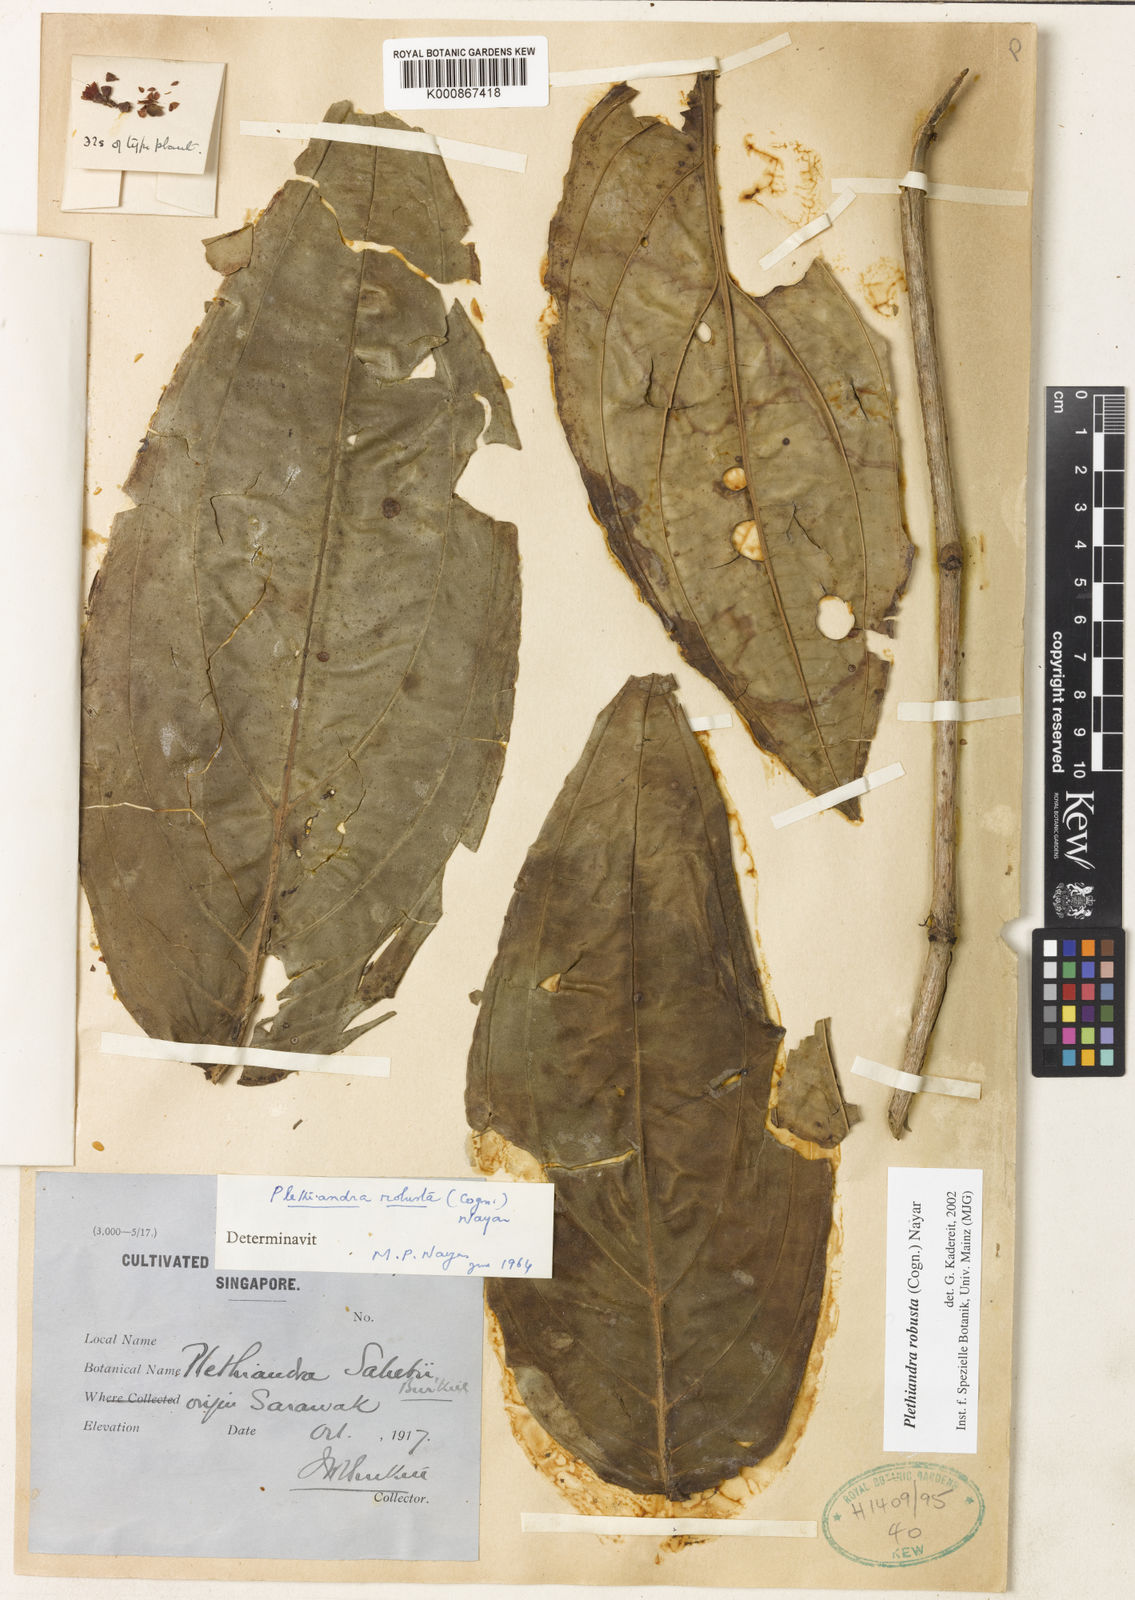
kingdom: Plantae
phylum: Tracheophyta
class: Magnoliopsida
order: Myrtales
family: Melastomataceae
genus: Plethiandra
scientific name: Plethiandra robusta
